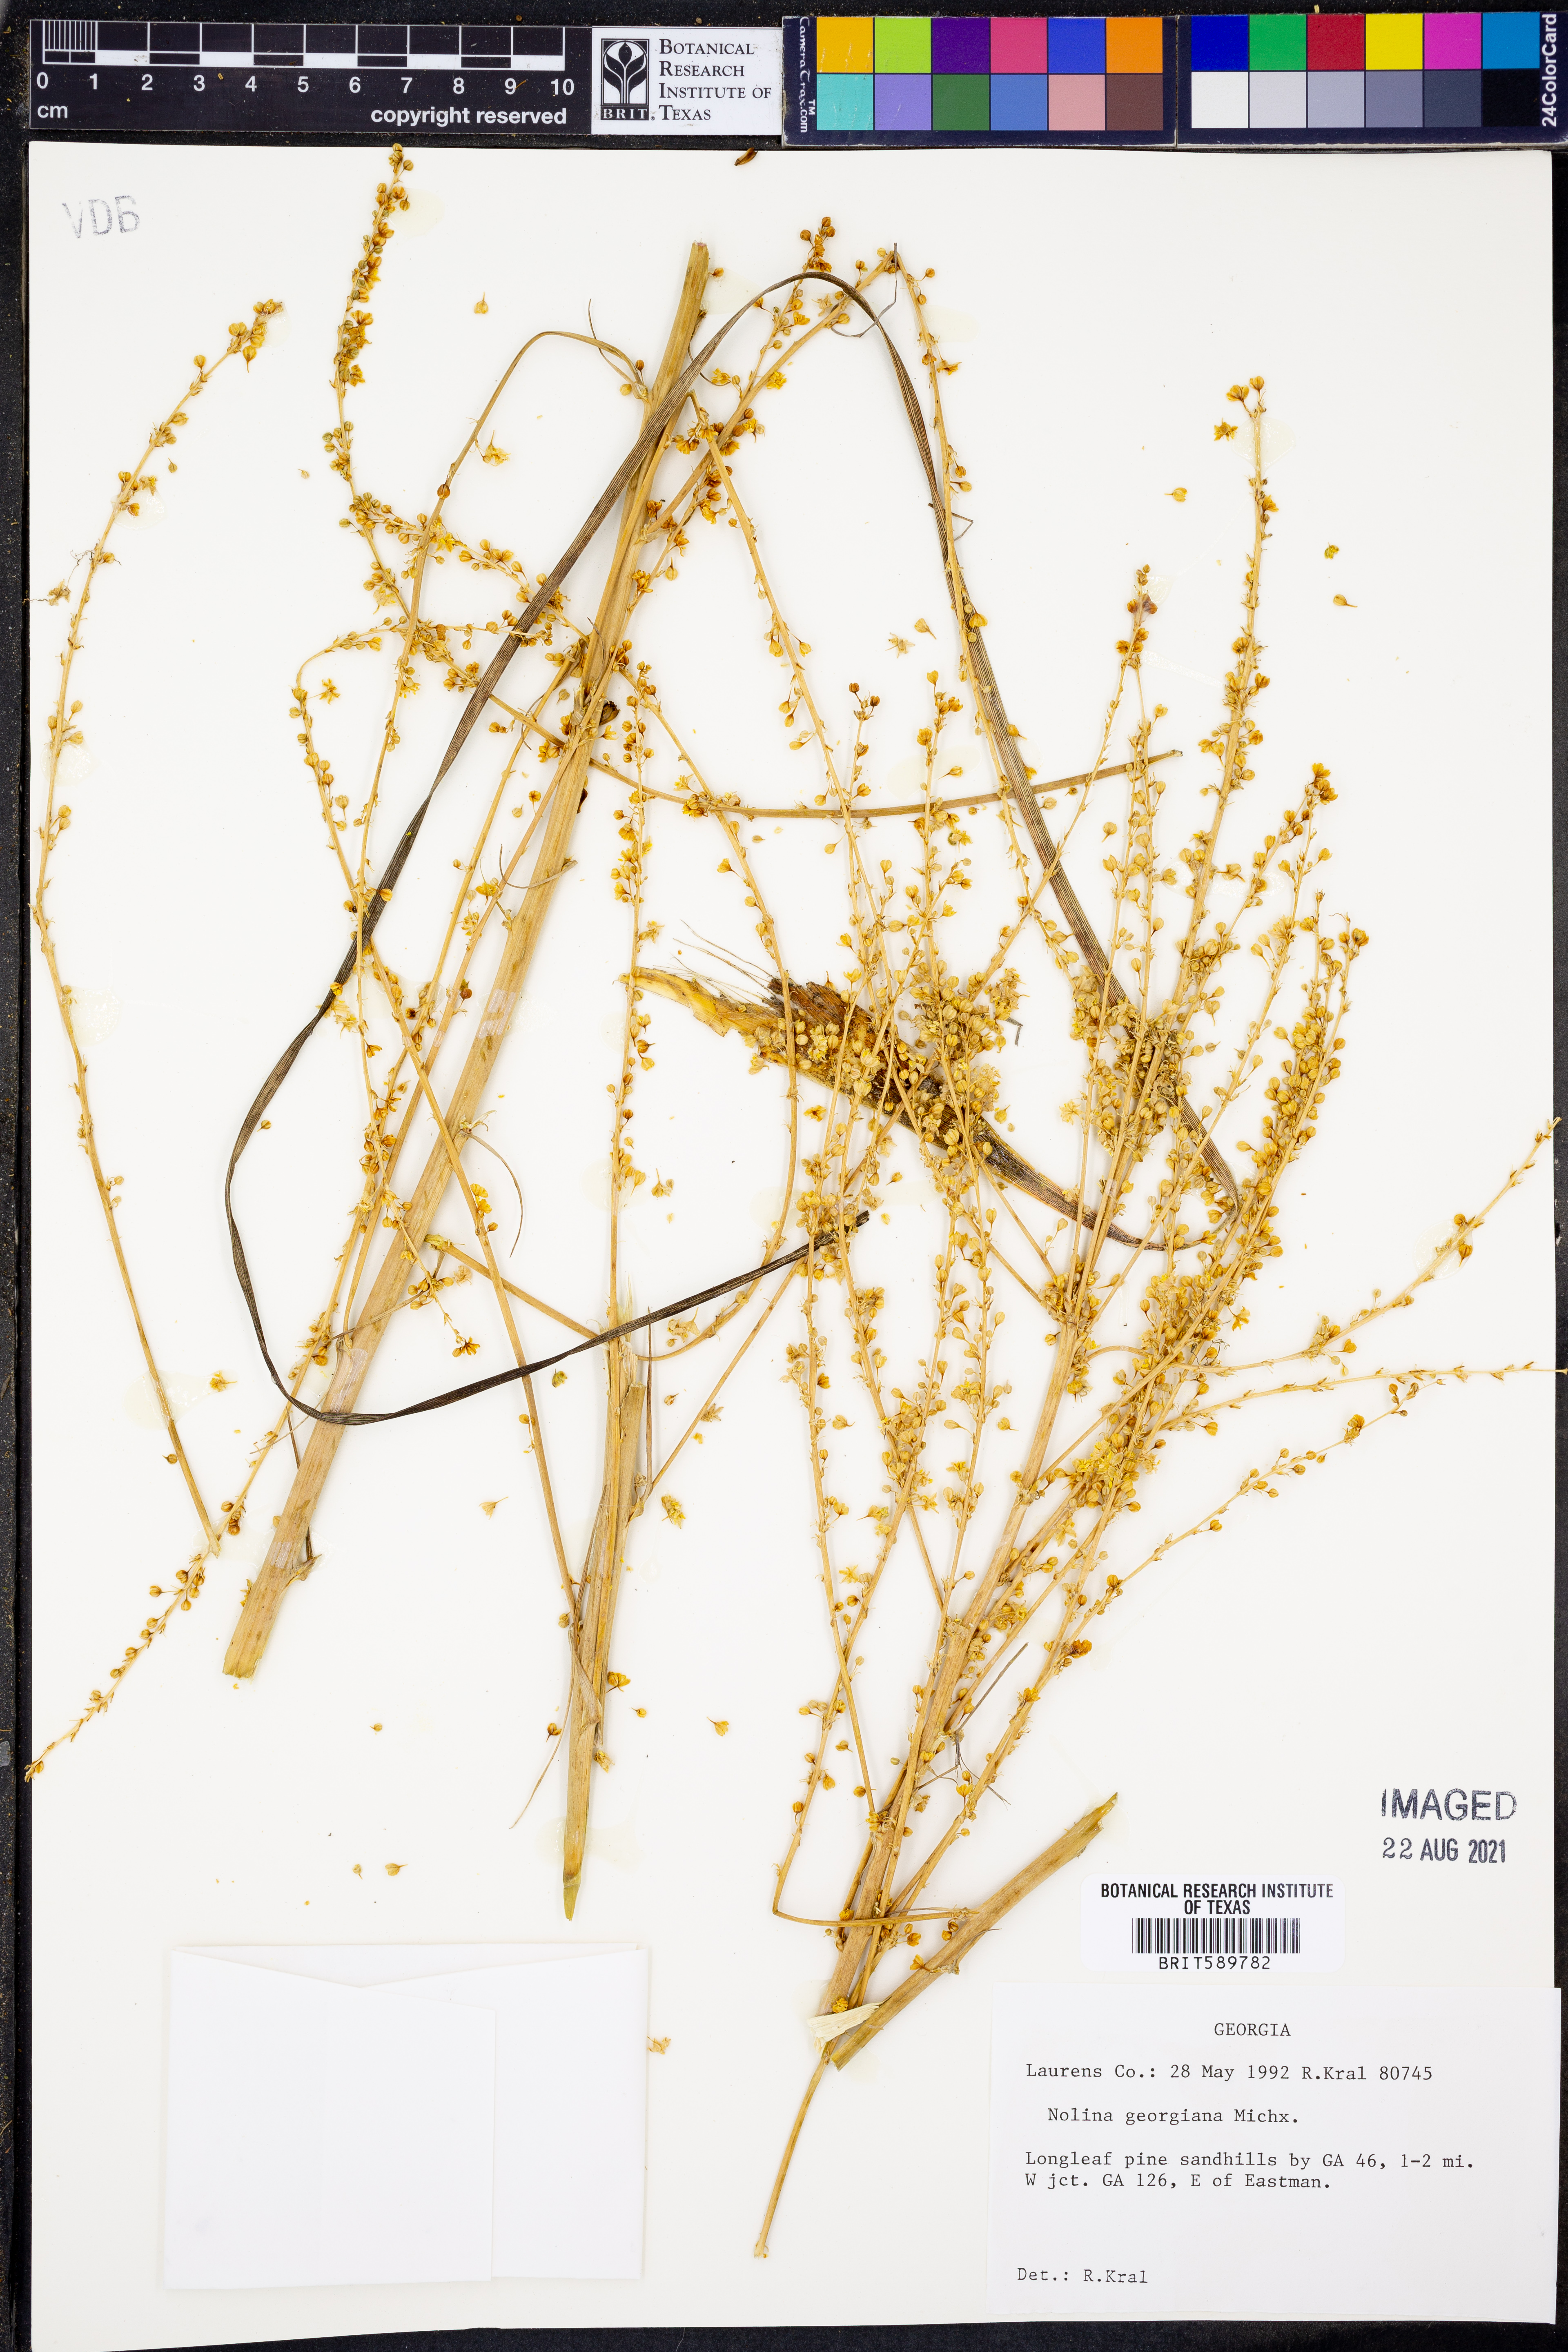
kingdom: Plantae
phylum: Tracheophyta
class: Liliopsida
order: Asparagales
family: Asparagaceae
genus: Nolina
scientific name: Nolina georgiana
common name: Georgia bear-grass
